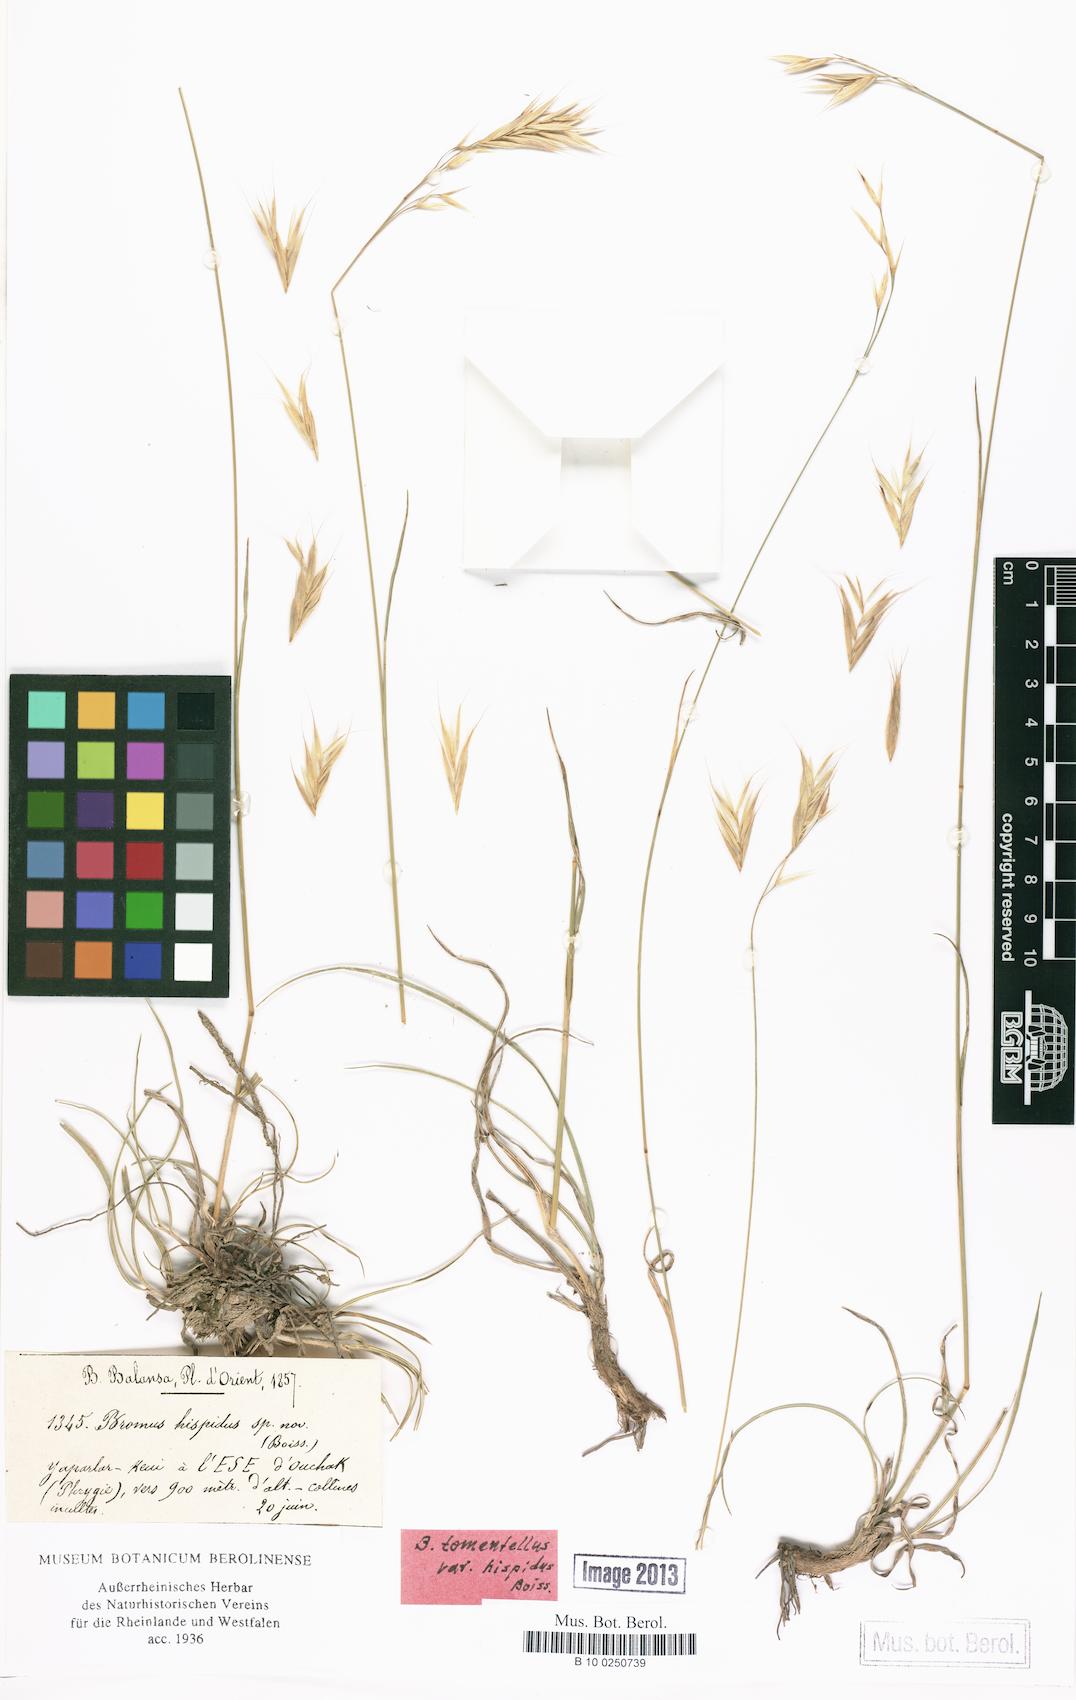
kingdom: Plantae
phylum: Tracheophyta
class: Liliopsida
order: Poales
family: Poaceae
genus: Bromus
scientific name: Bromus tomentellus
